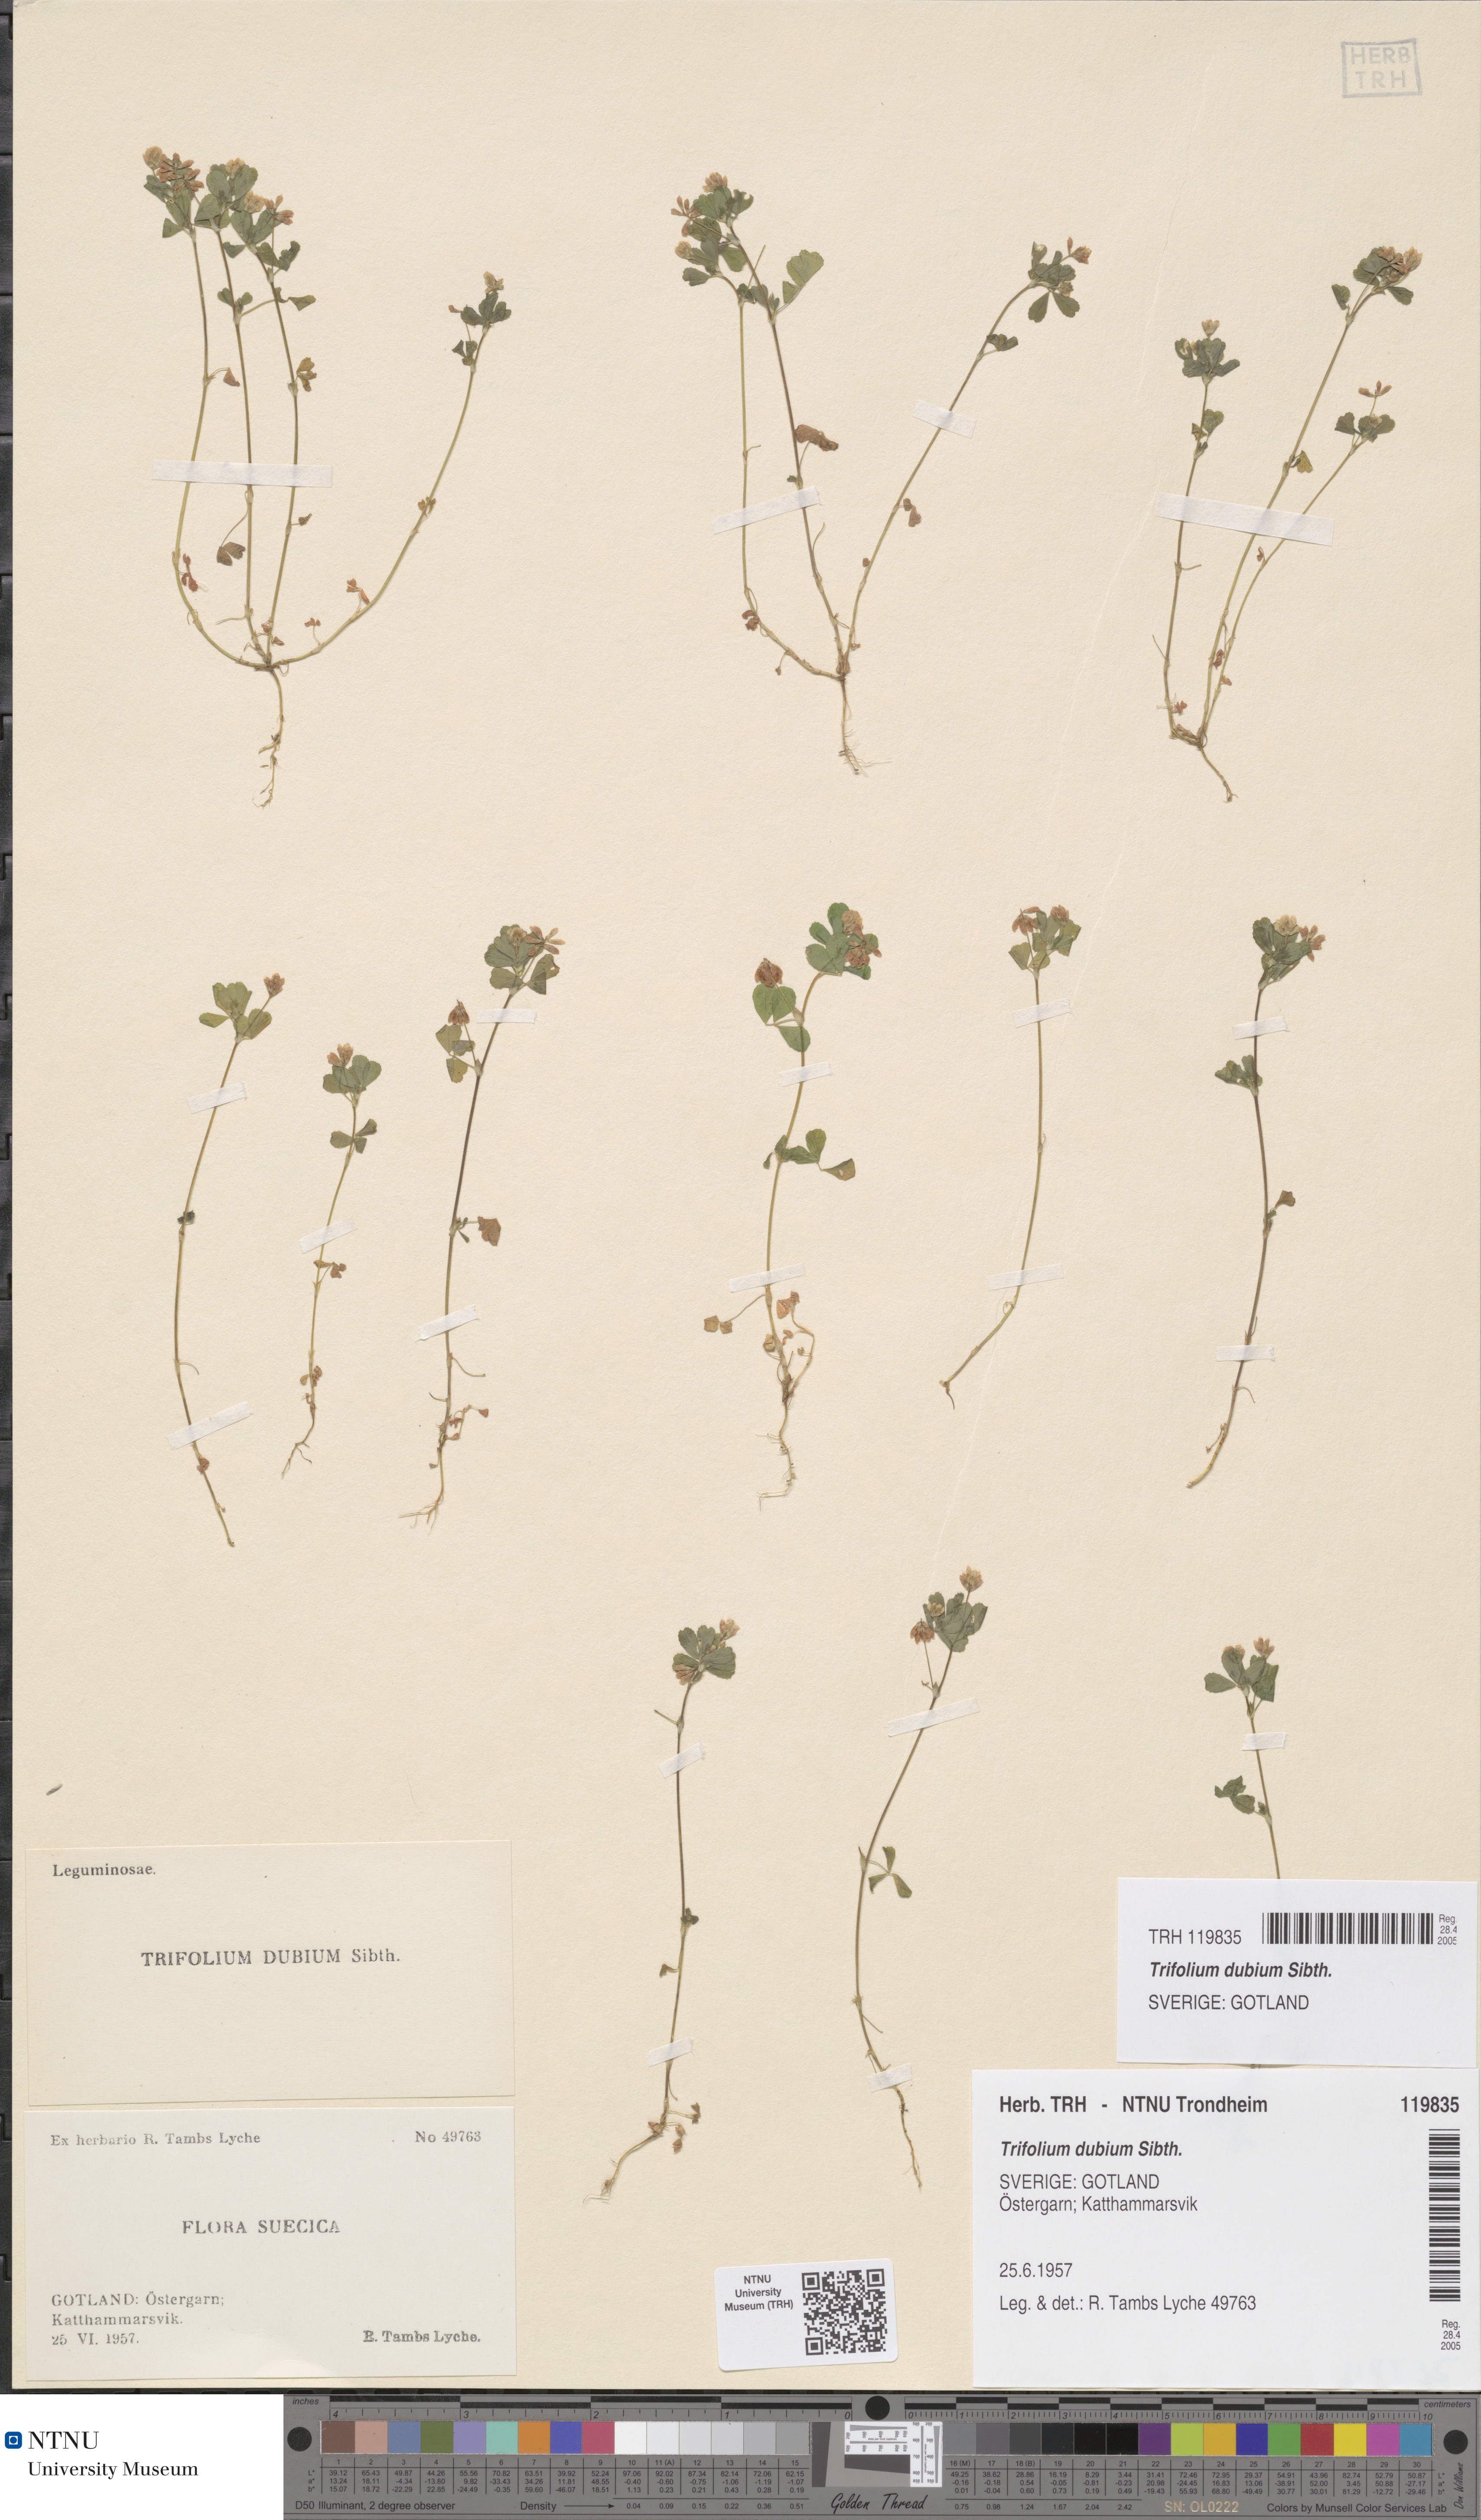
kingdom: Plantae
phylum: Tracheophyta
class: Magnoliopsida
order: Fabales
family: Fabaceae
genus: Trifolium
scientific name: Trifolium dubium
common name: Suckling clover
